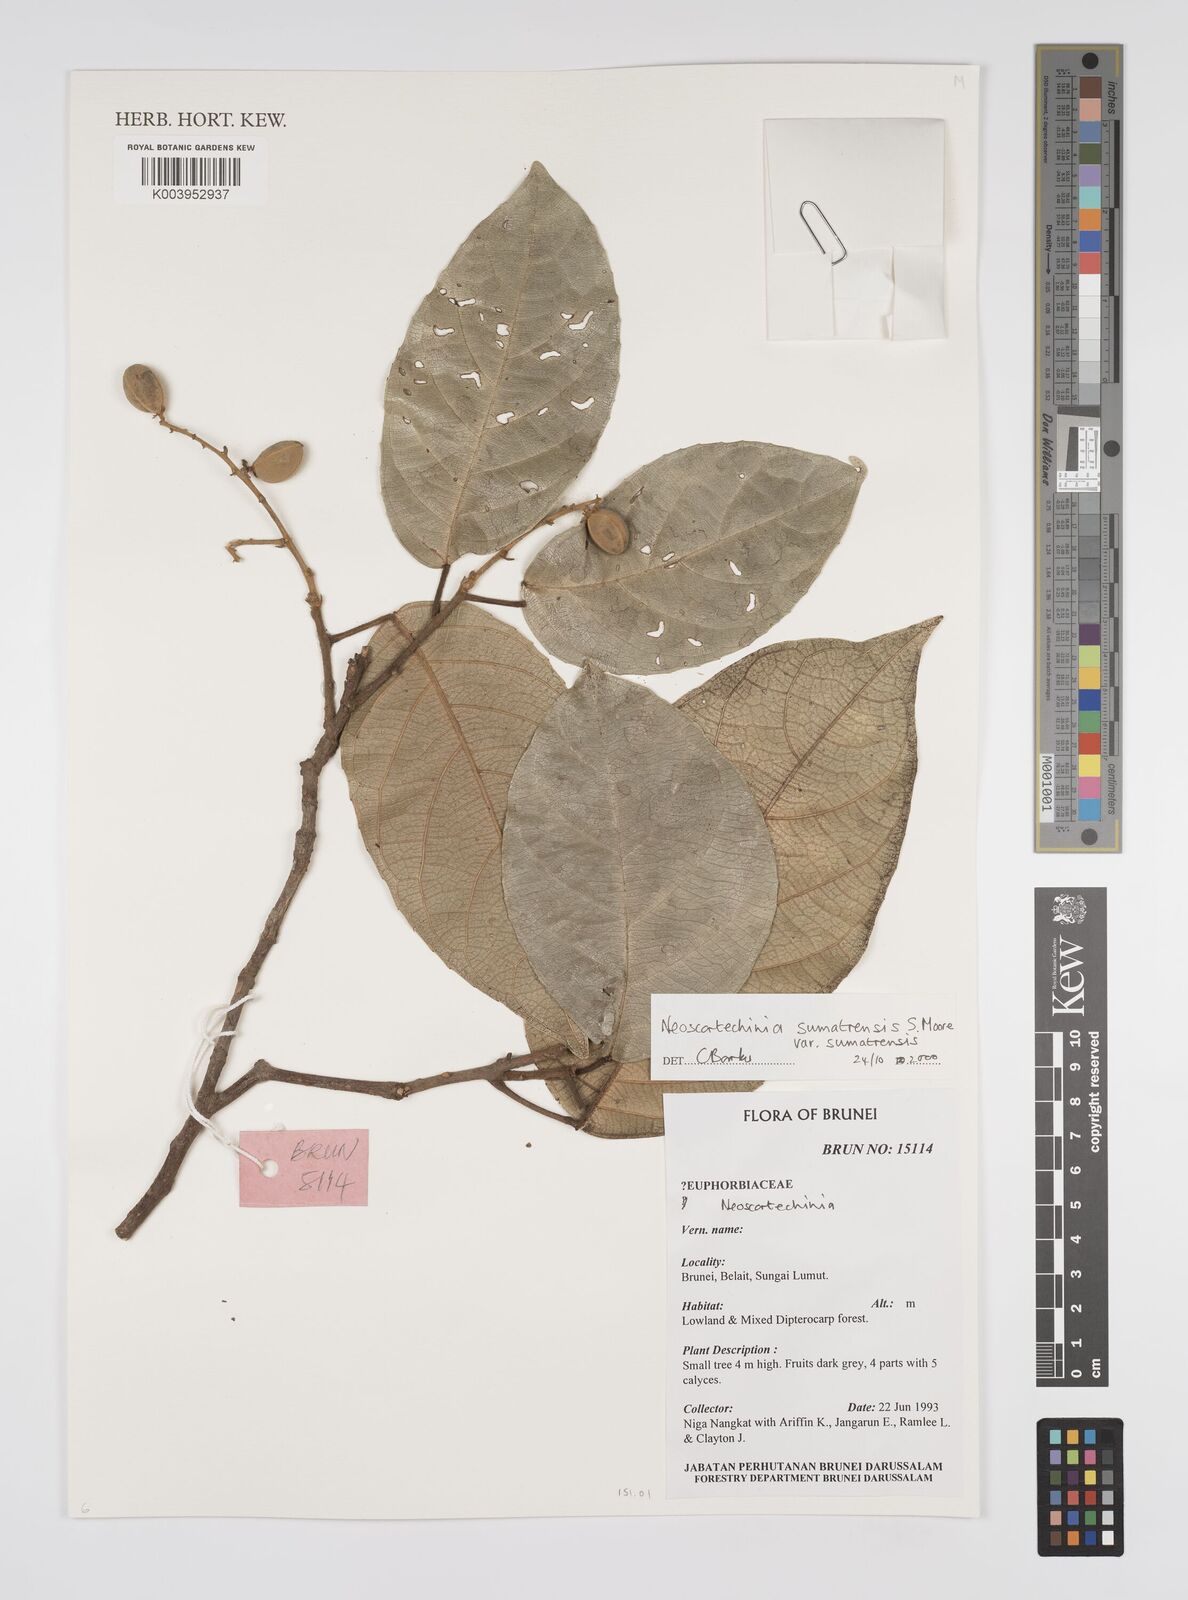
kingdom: Plantae
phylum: Tracheophyta
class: Magnoliopsida
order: Malpighiales
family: Euphorbiaceae
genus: Neoscortechinia
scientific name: Neoscortechinia sumatrensis
